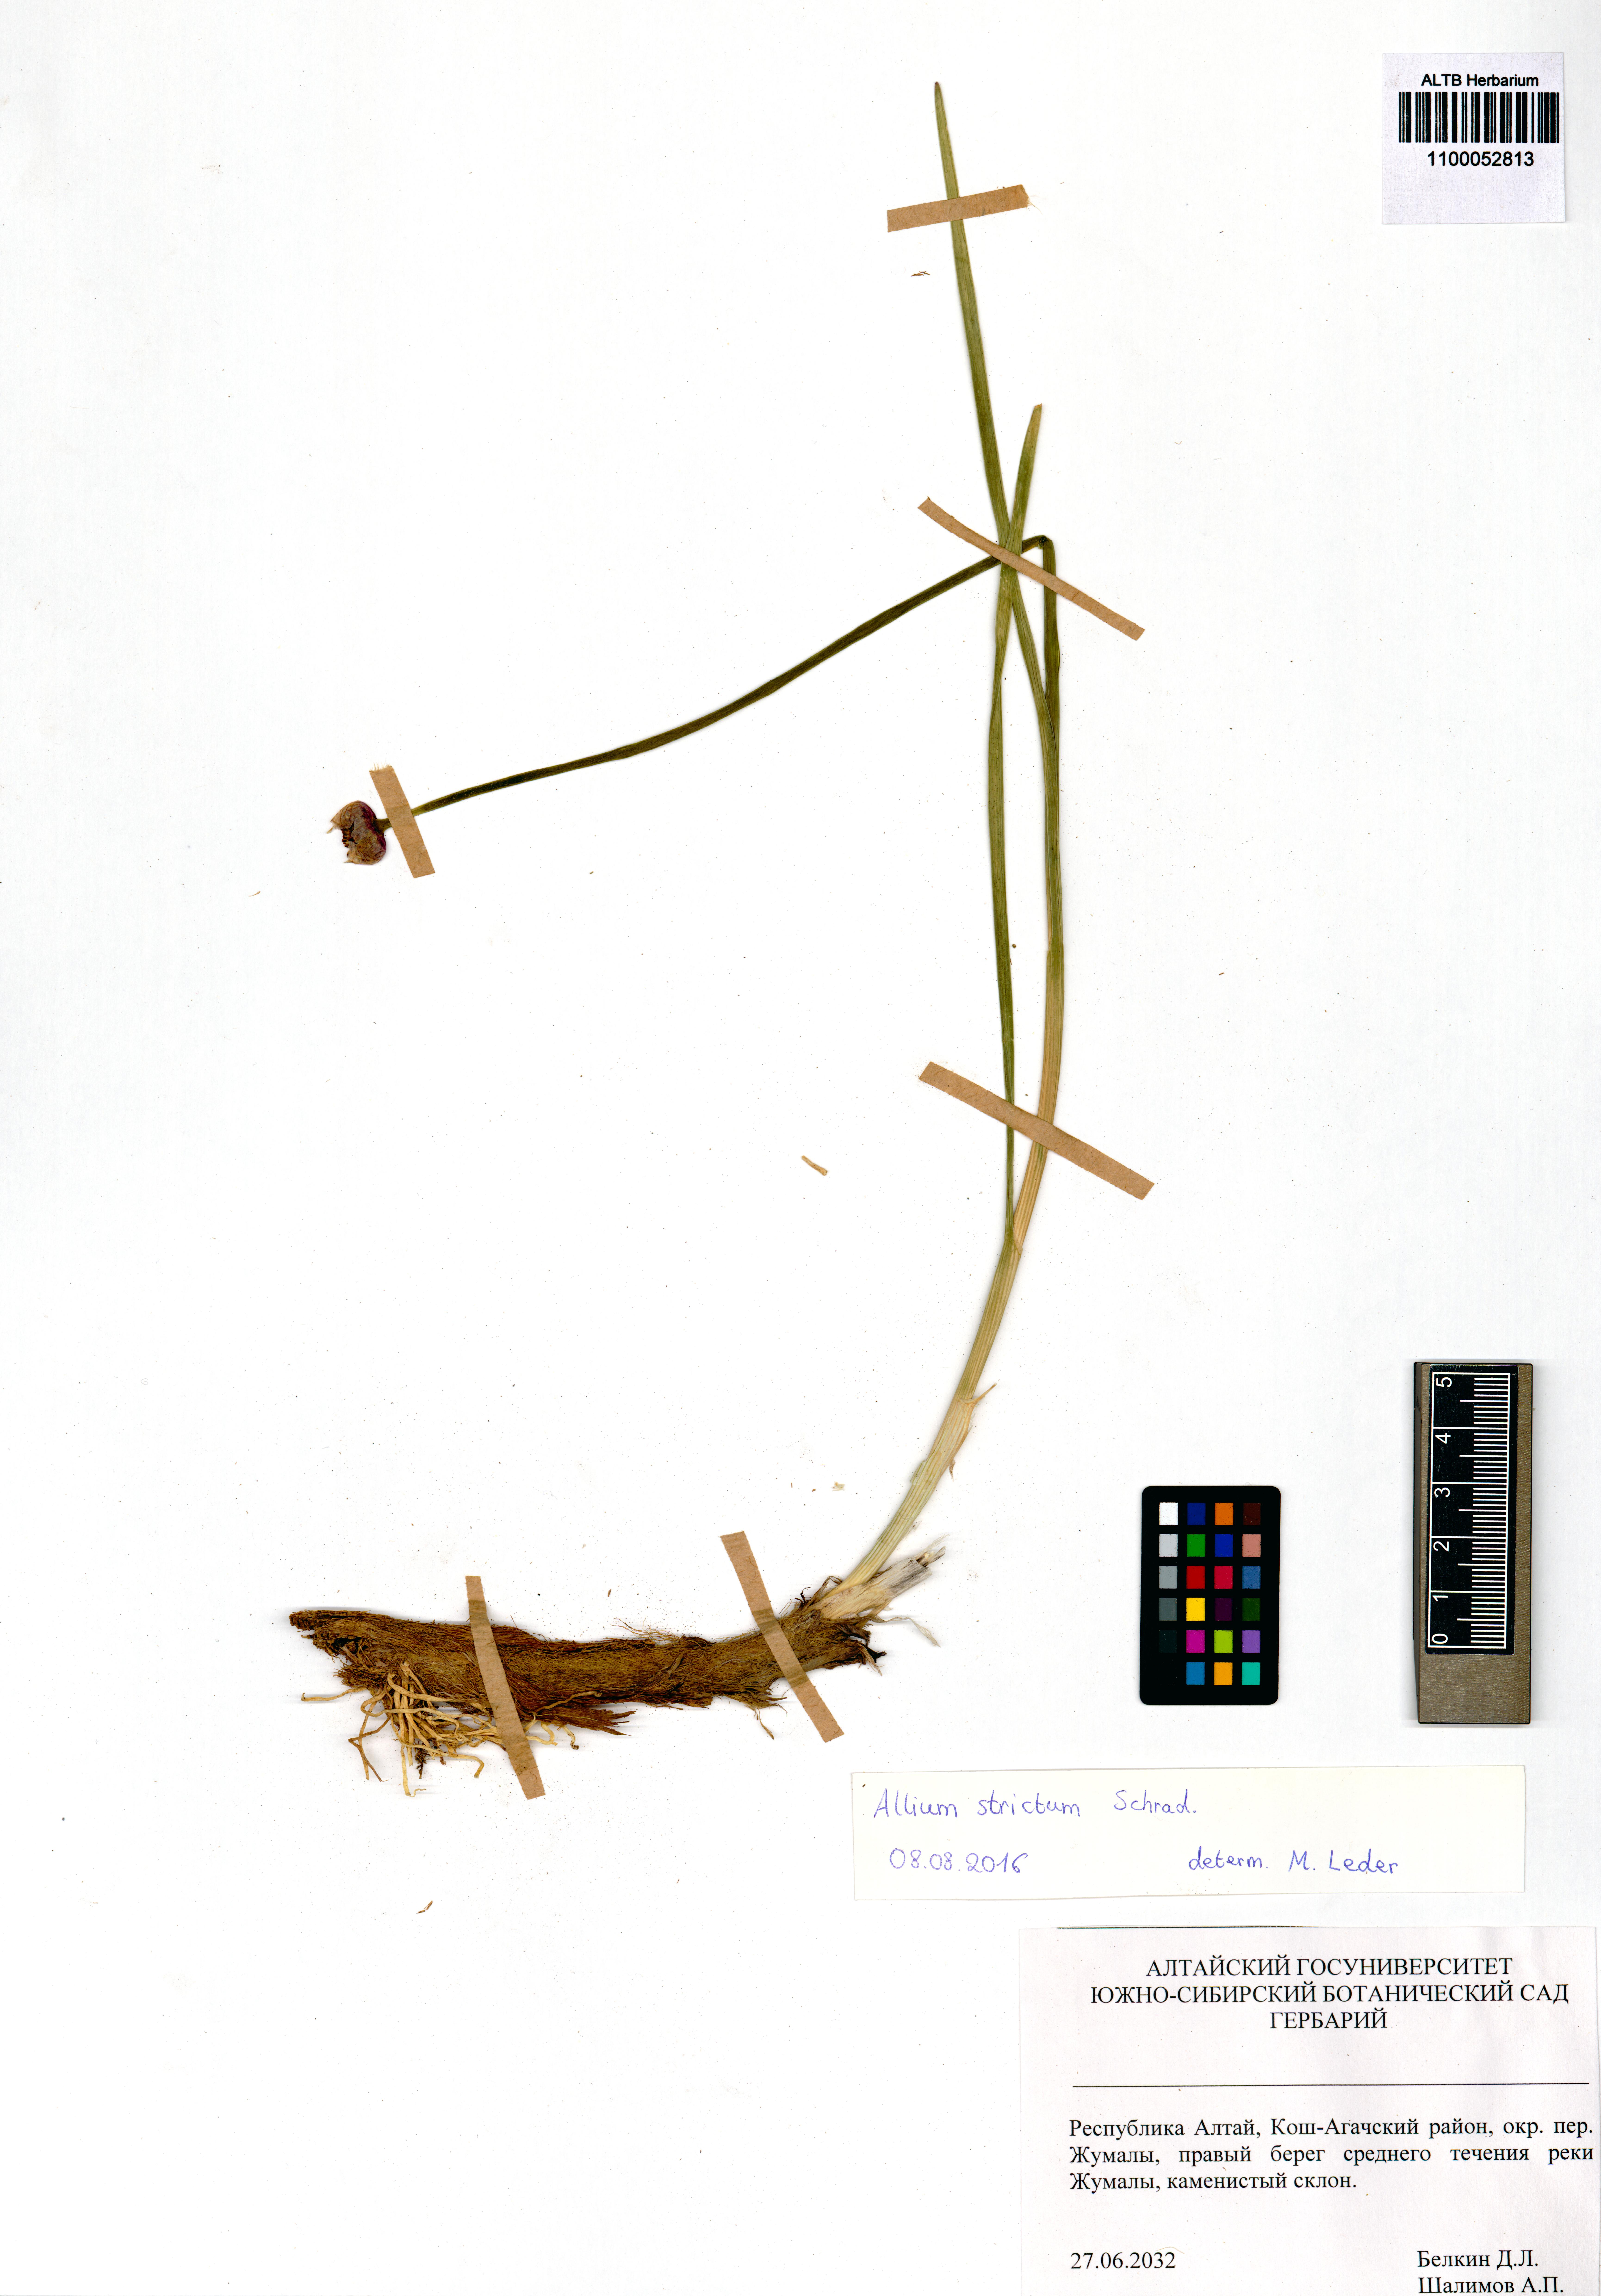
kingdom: Plantae
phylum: Tracheophyta
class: Liliopsida
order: Asparagales
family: Amaryllidaceae
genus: Allium
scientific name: Allium strictum
